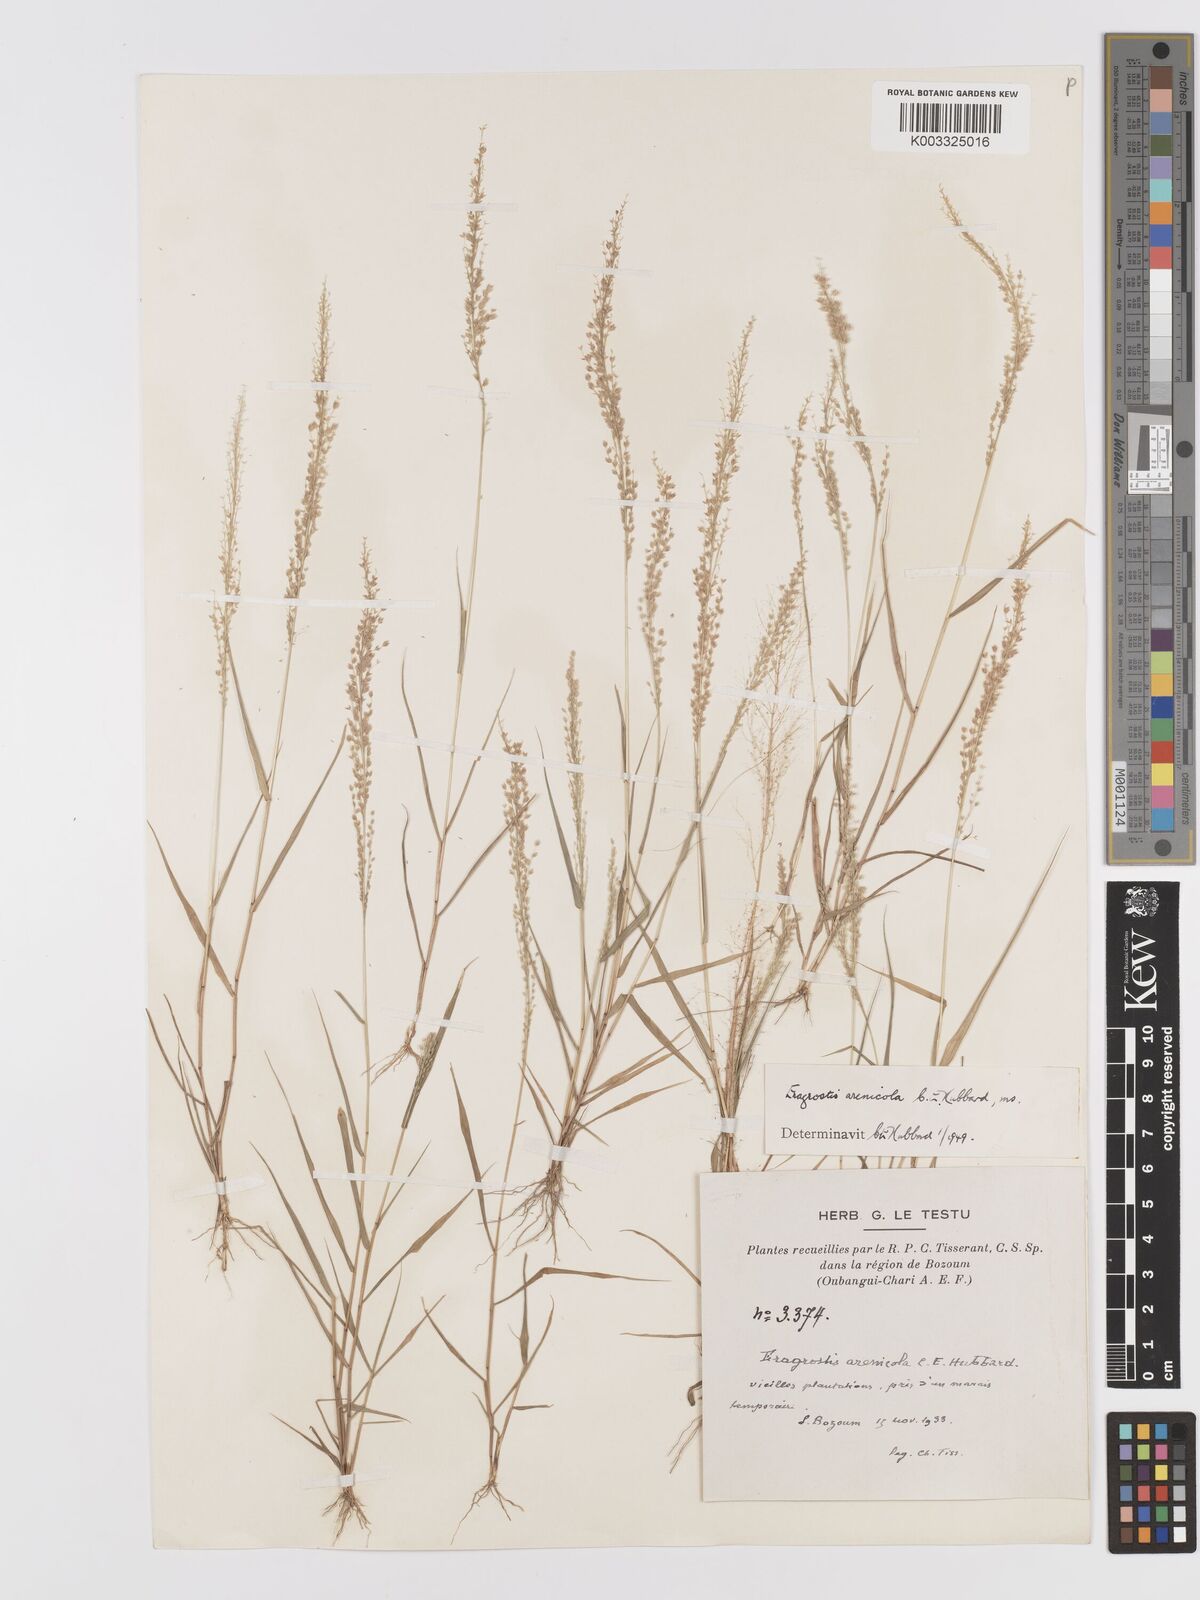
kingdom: Plantae
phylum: Tracheophyta
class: Liliopsida
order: Poales
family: Poaceae
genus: Eragrostis
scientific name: Eragrostis arenicola
